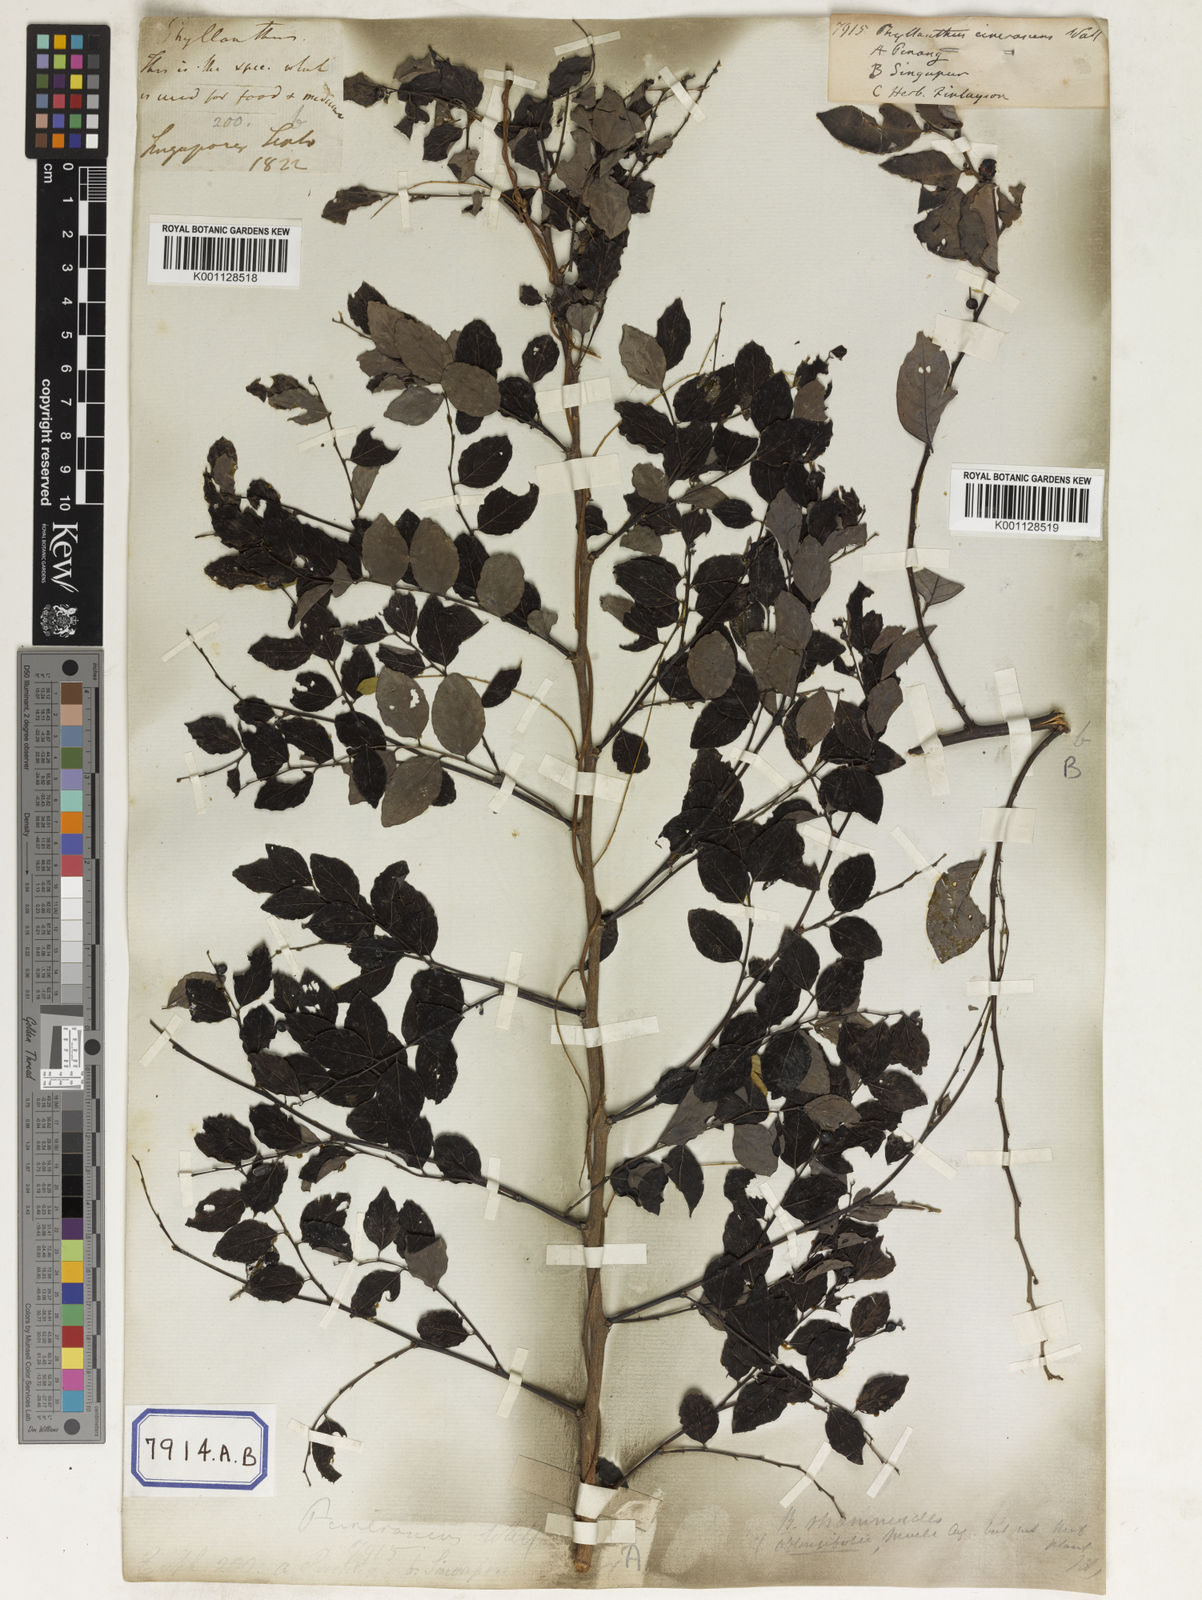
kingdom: Plantae
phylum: Tracheophyta
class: Magnoliopsida
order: Malpighiales
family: Phyllanthaceae
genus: Phyllanthus
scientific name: Phyllanthus
